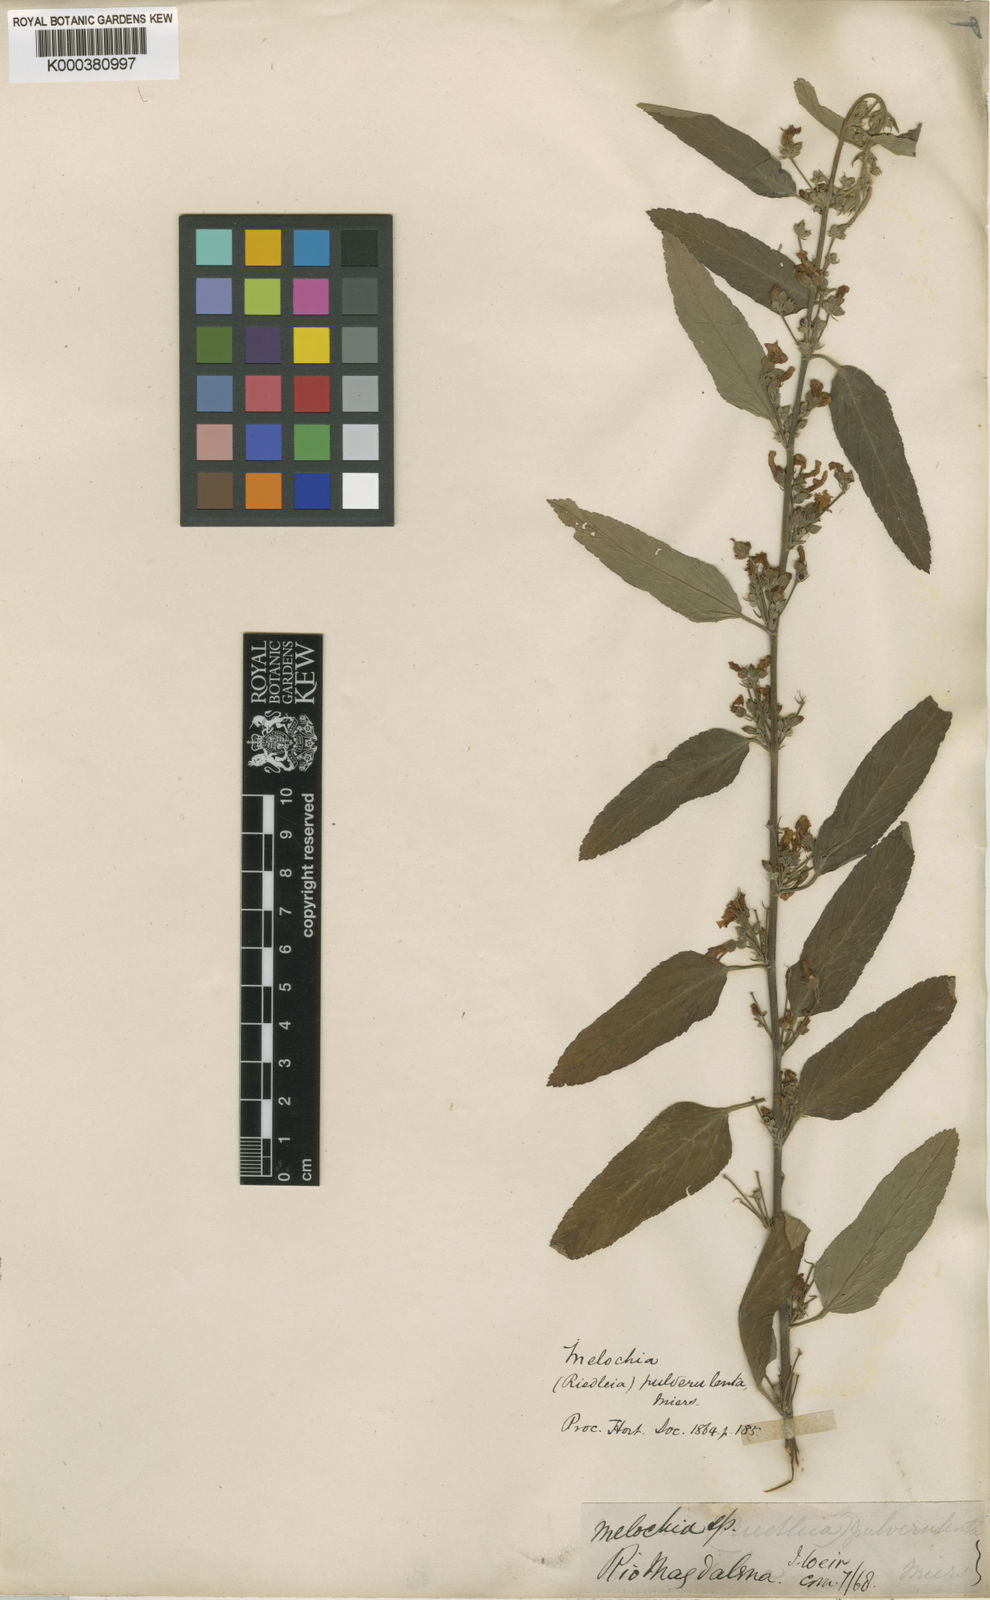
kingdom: Plantae
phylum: Tracheophyta
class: Magnoliopsida
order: Malvales
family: Malvaceae
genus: Melochia
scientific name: Melochia pulverulenta
